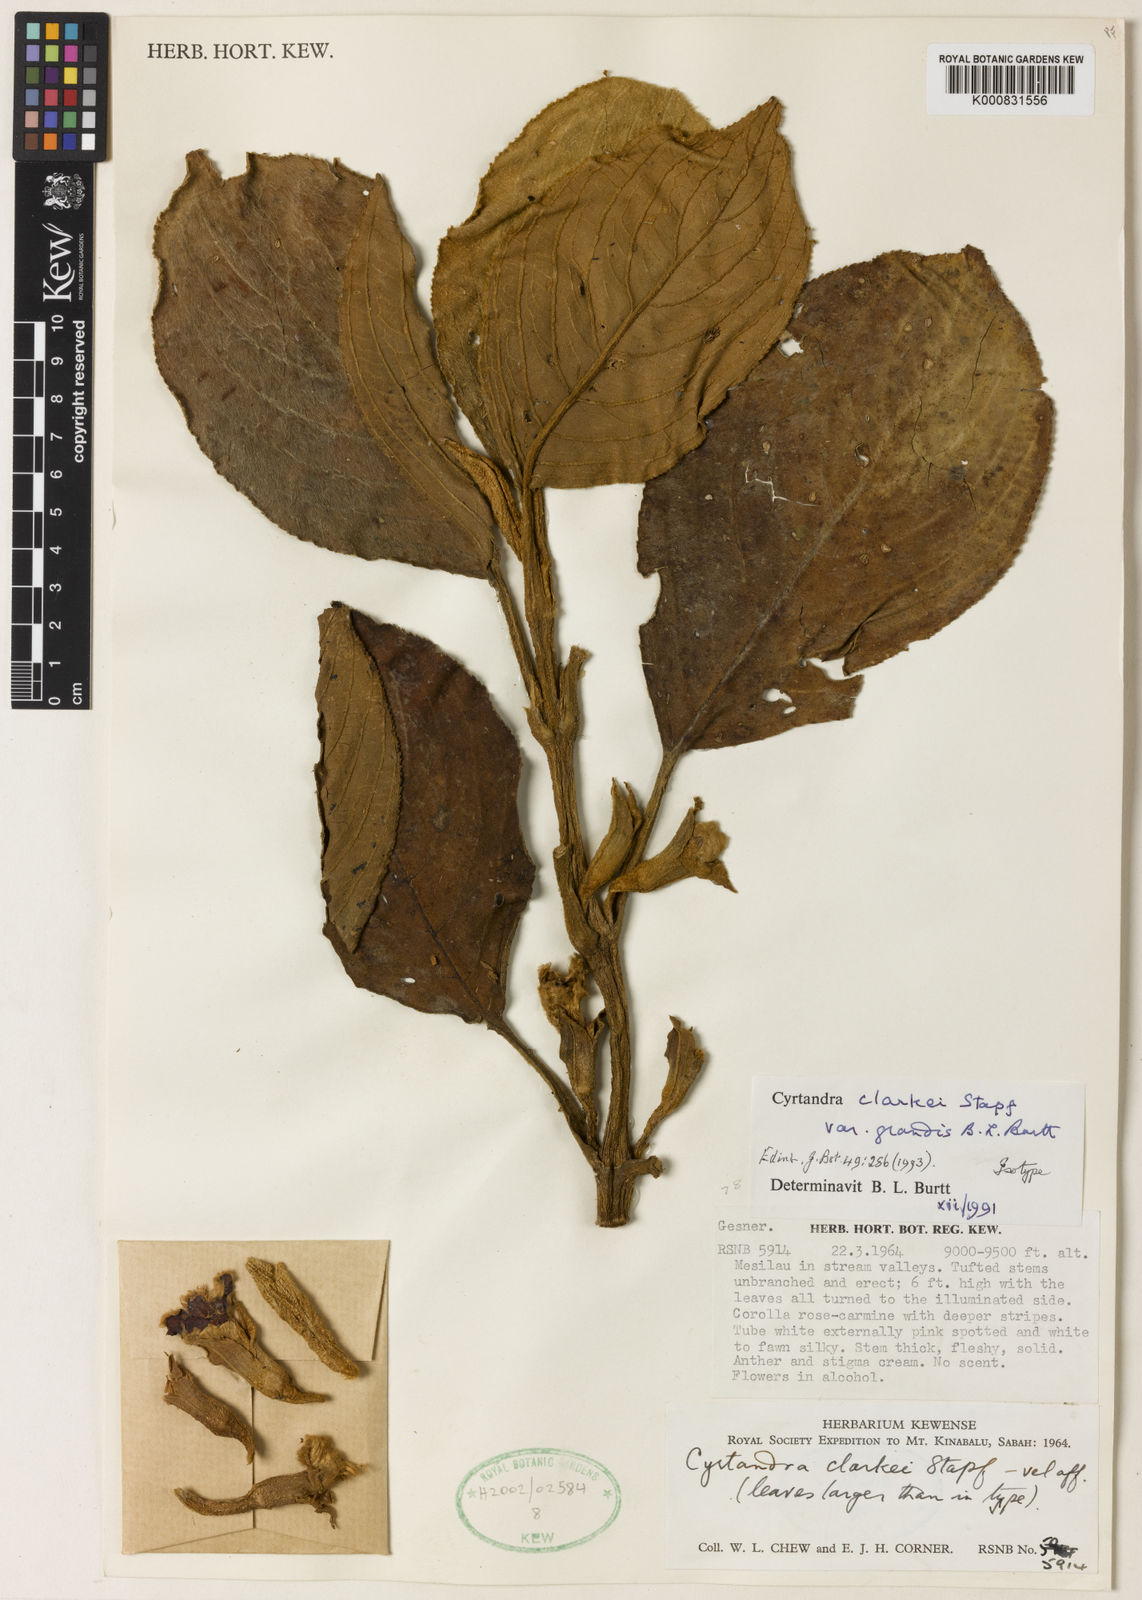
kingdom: Plantae
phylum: Tracheophyta
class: Magnoliopsida
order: Lamiales
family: Gesneriaceae
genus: Cyrtandra
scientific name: Cyrtandra clarkei
